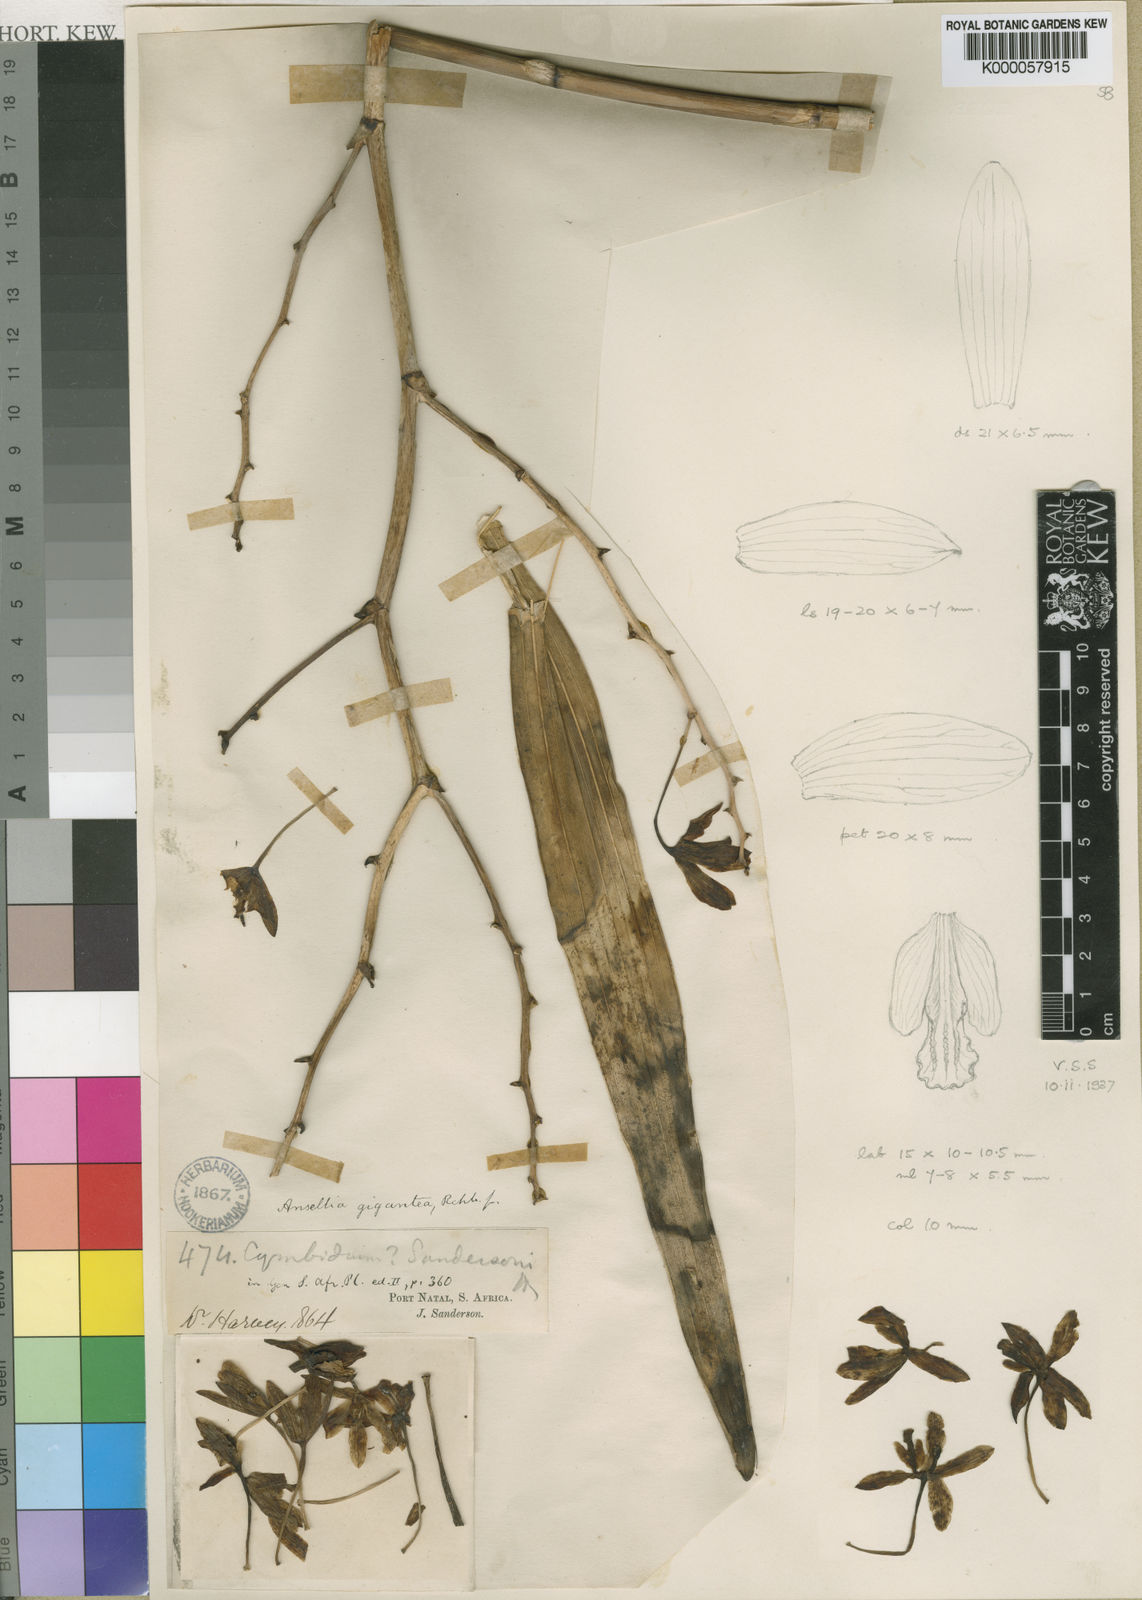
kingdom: Plantae
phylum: Tracheophyta
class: Liliopsida
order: Asparagales
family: Orchidaceae
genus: Ansellia
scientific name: Ansellia africana
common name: African ansellia
